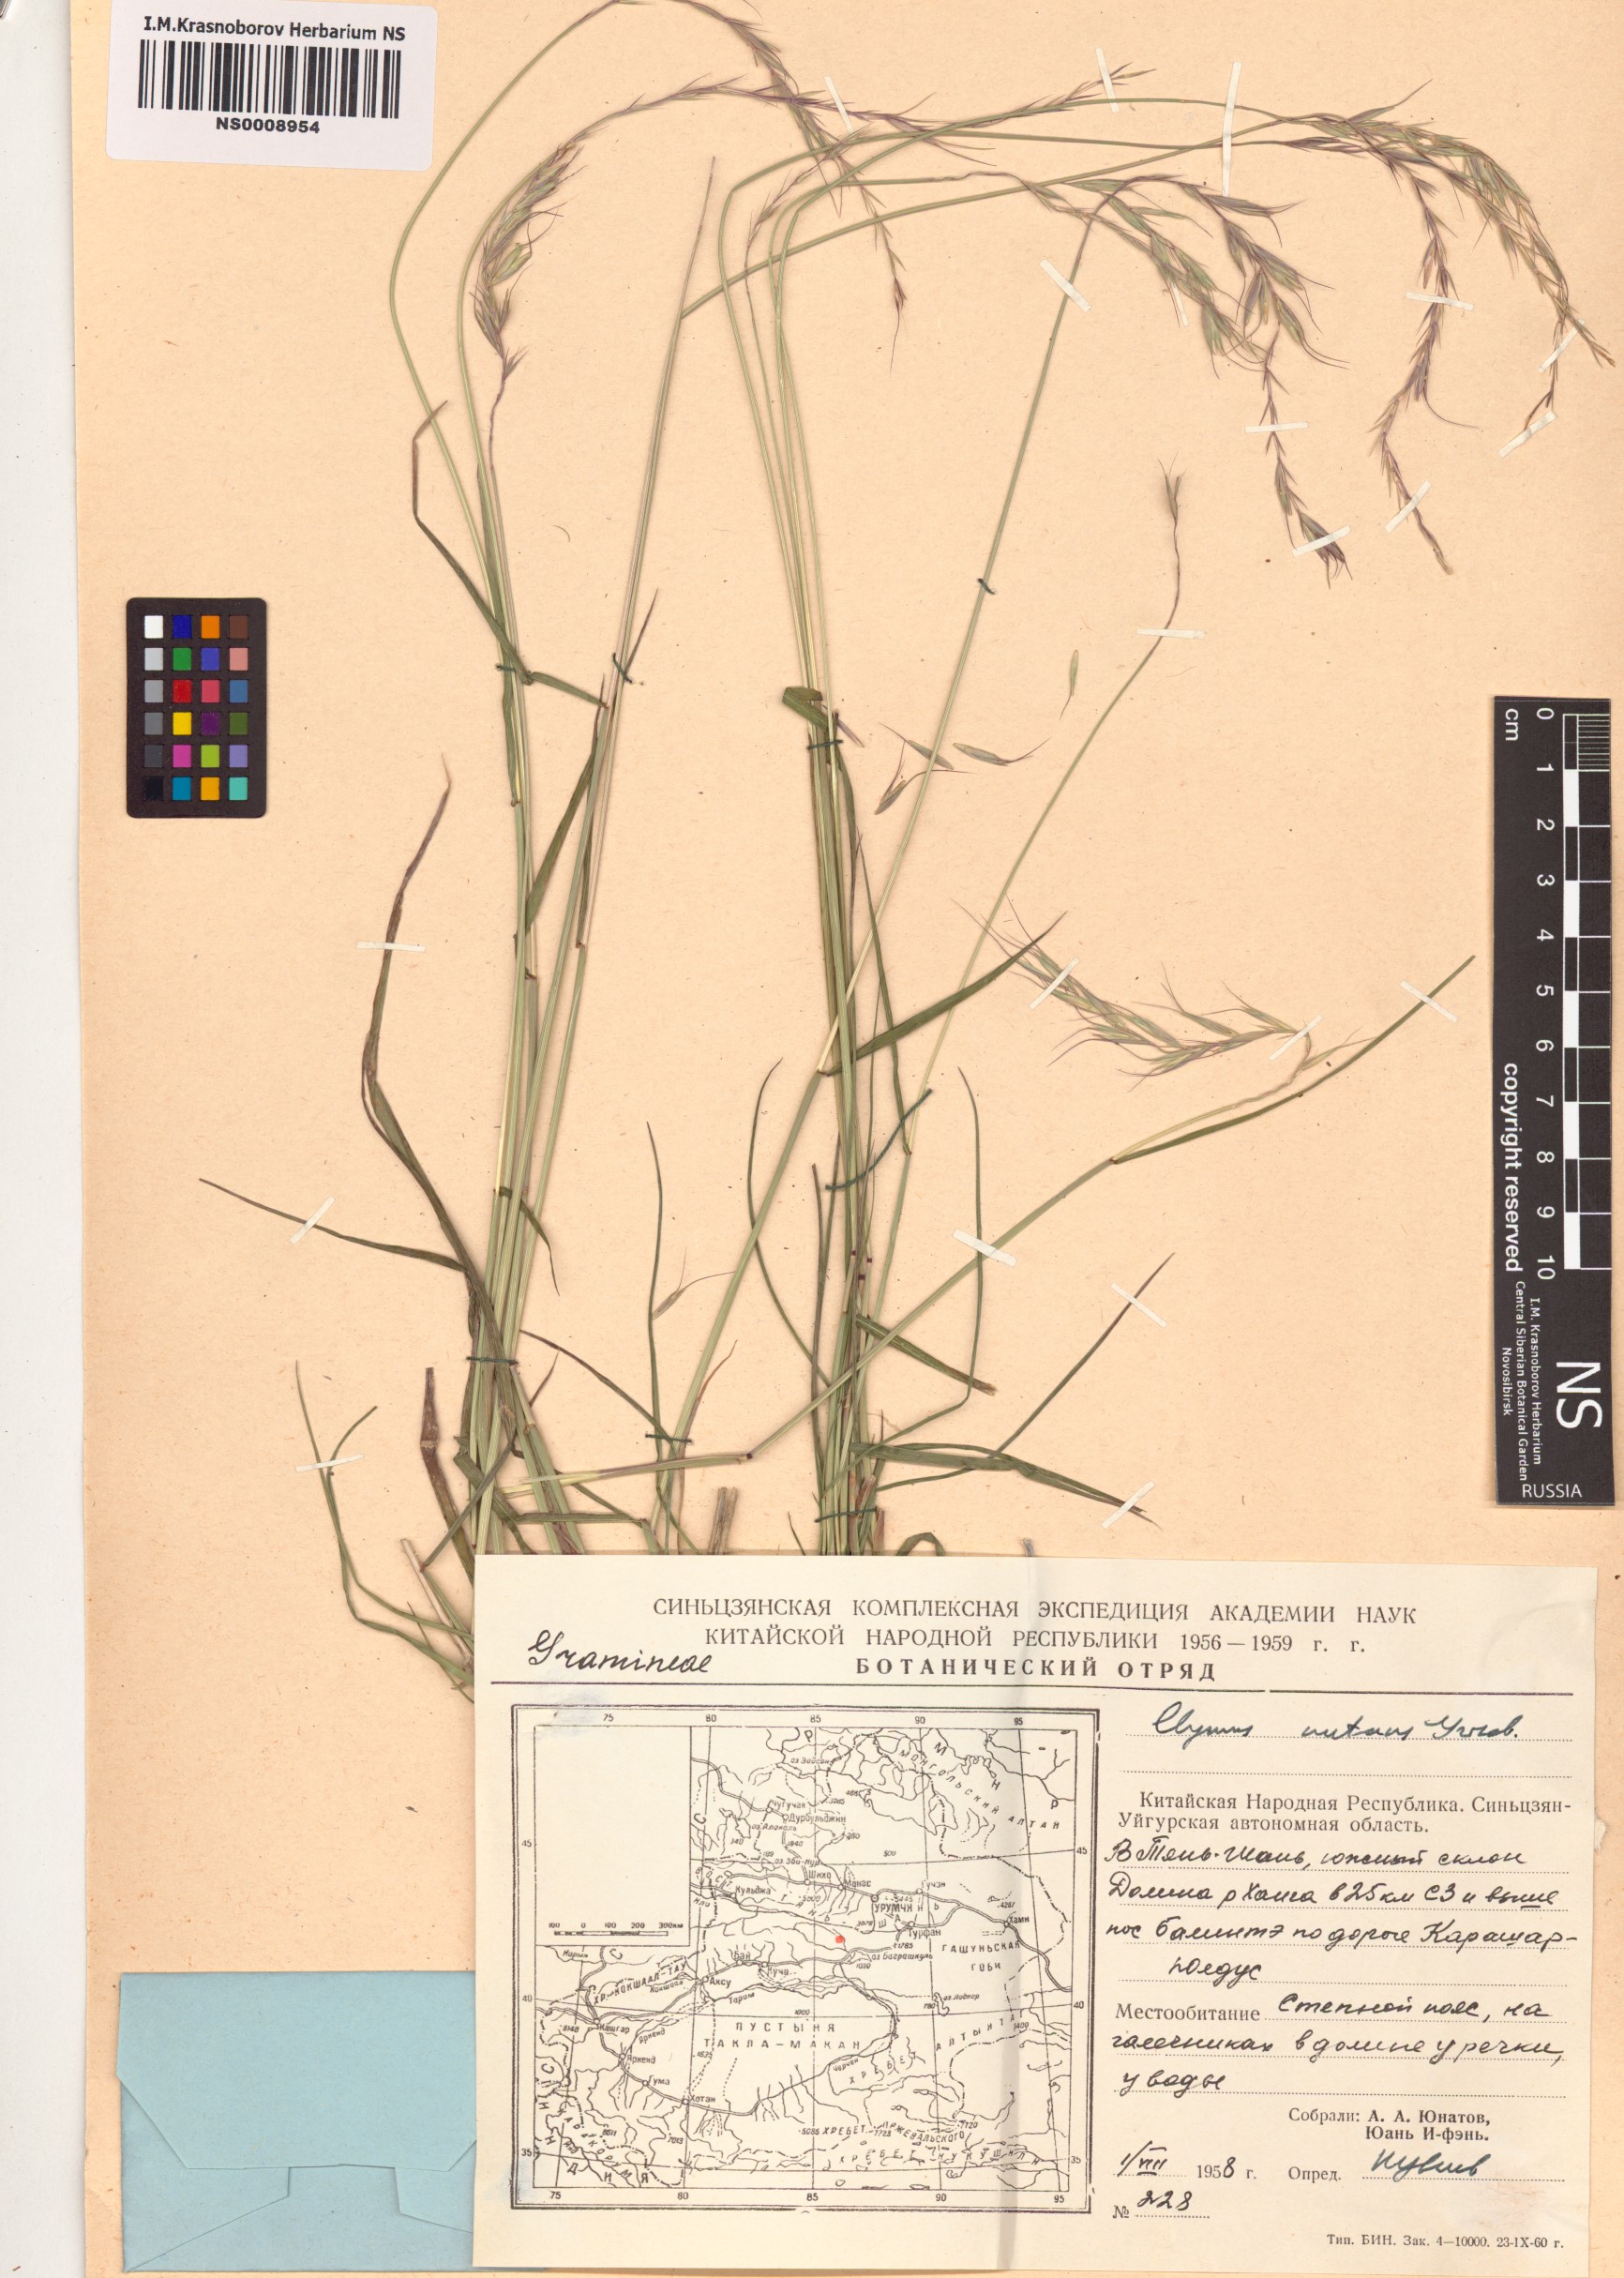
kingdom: Plantae
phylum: Tracheophyta
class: Liliopsida
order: Poales
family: Poaceae
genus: Elymus
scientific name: Elymus nutans
